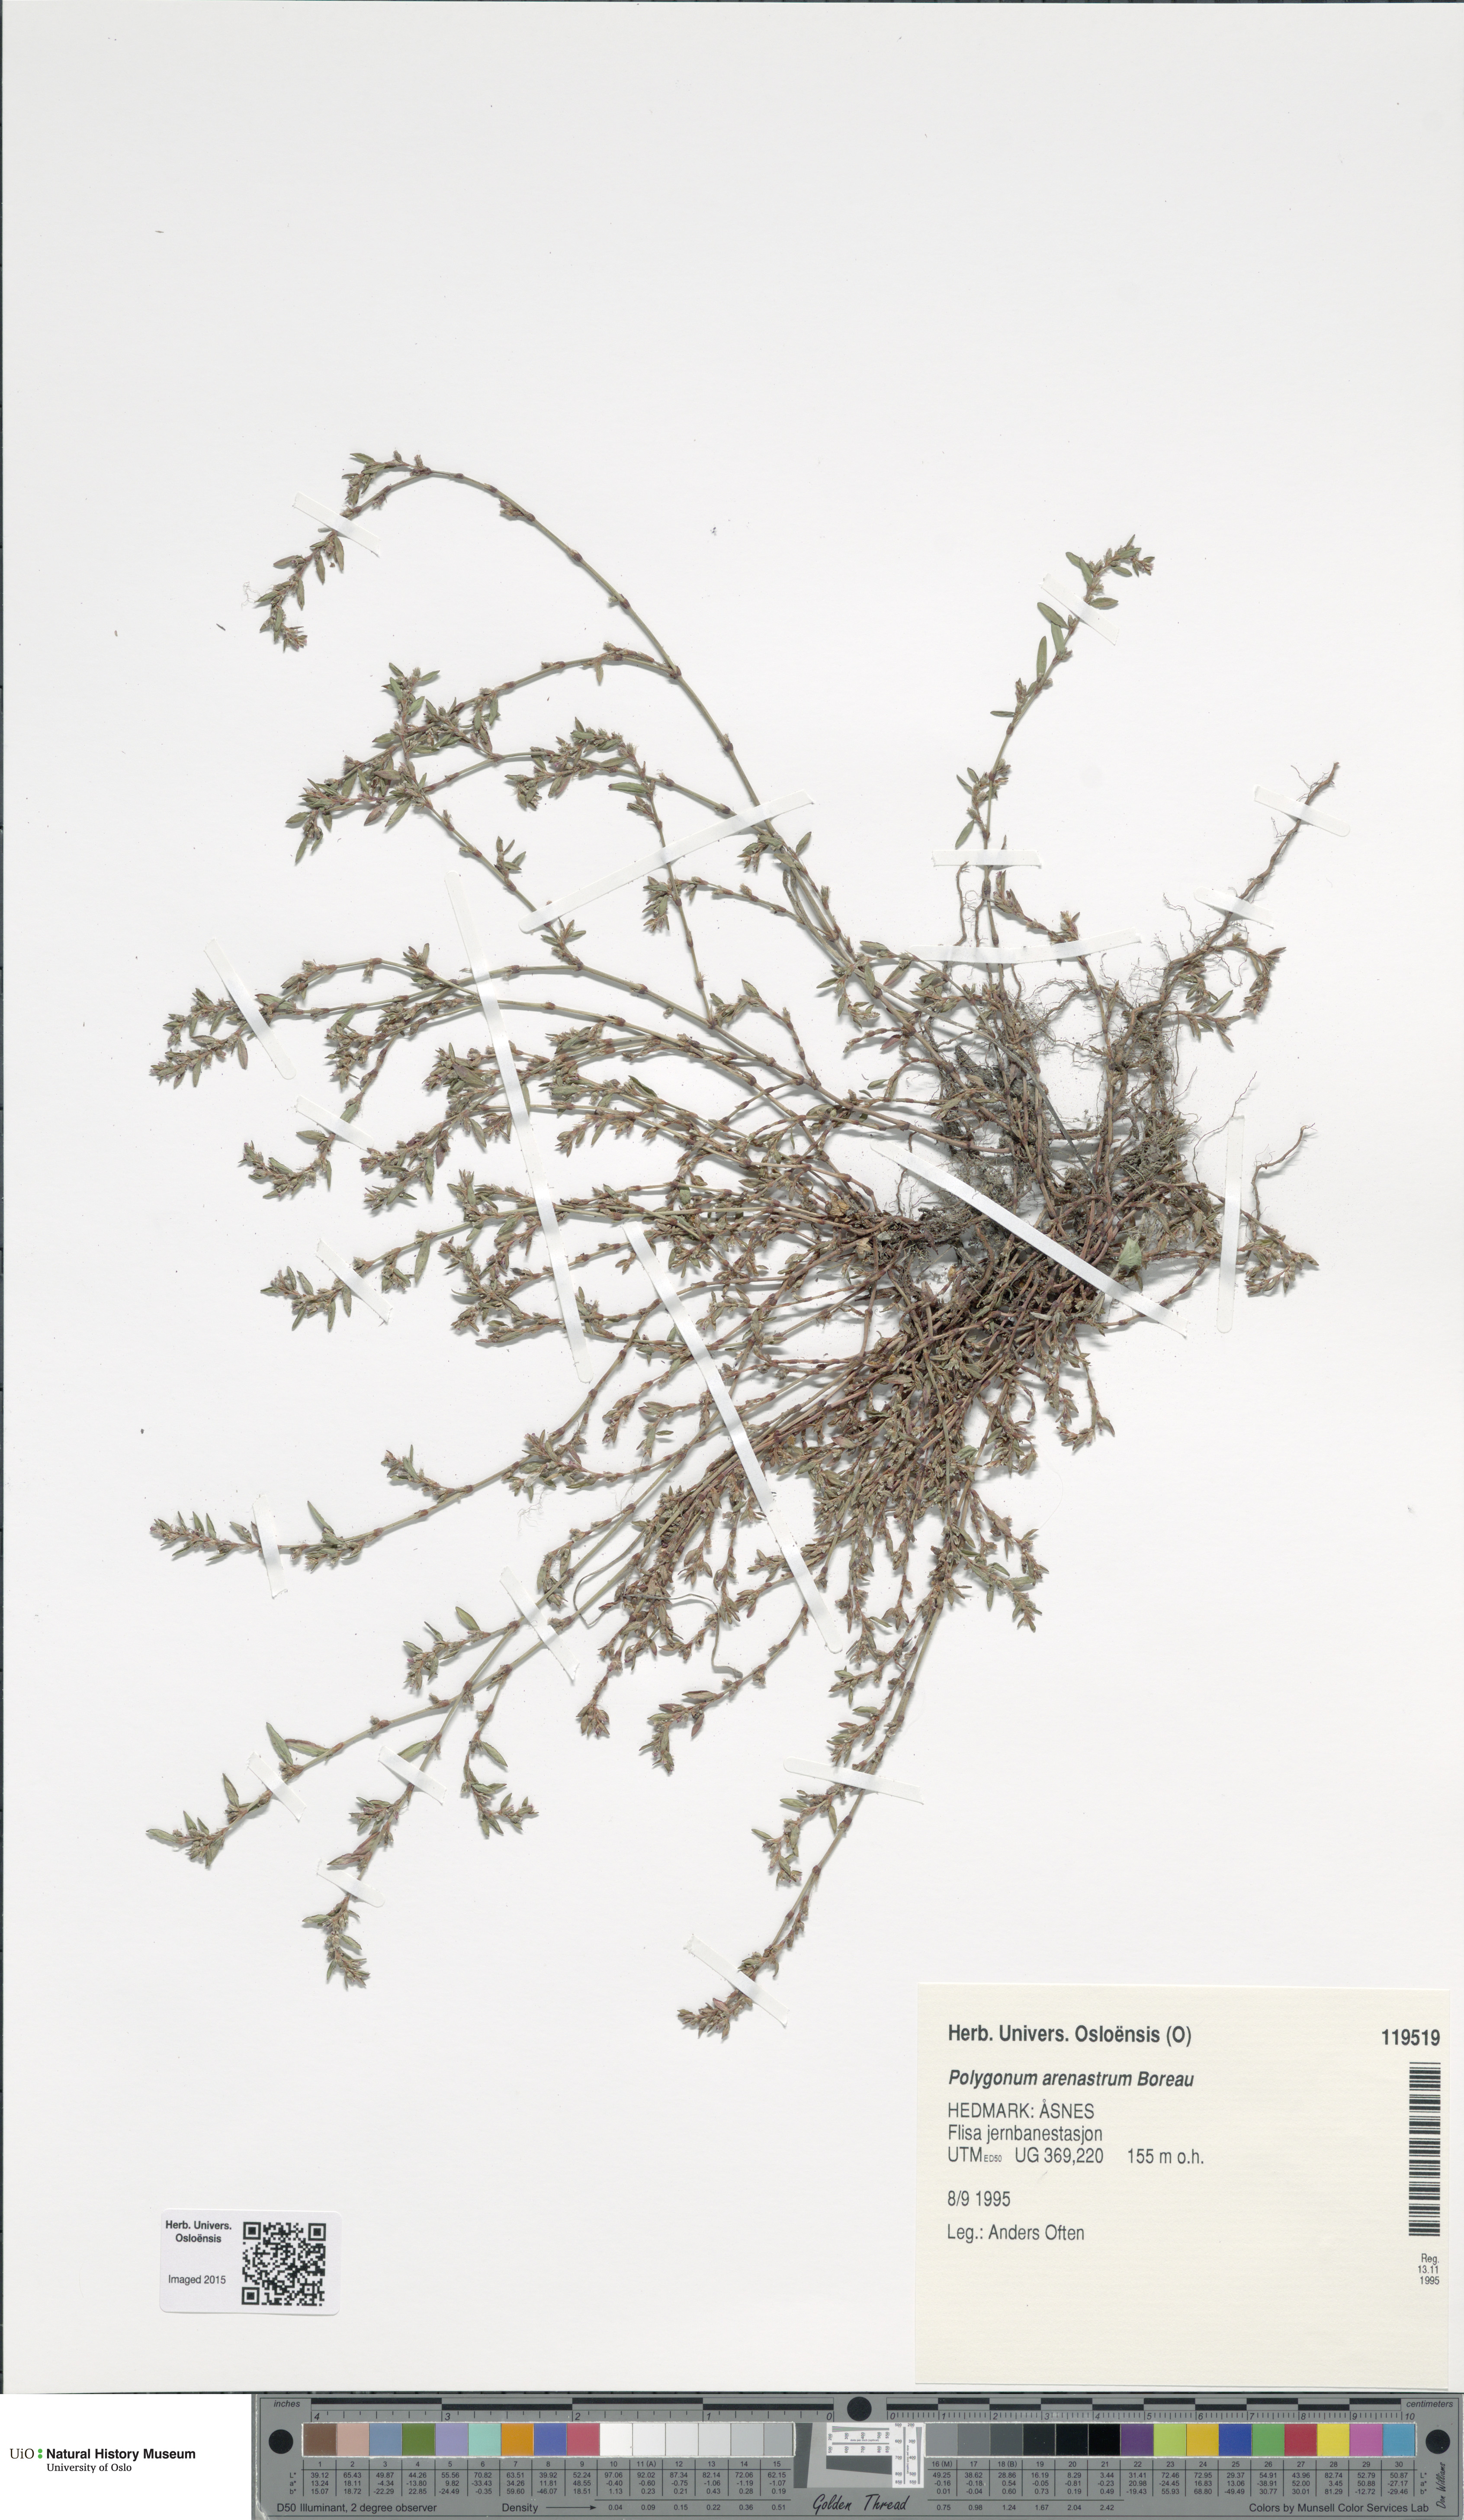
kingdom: Plantae
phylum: Tracheophyta
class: Magnoliopsida
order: Caryophyllales
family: Polygonaceae
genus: Polygonum
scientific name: Polygonum arenastrum
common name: Equal-leaved knotgrass
